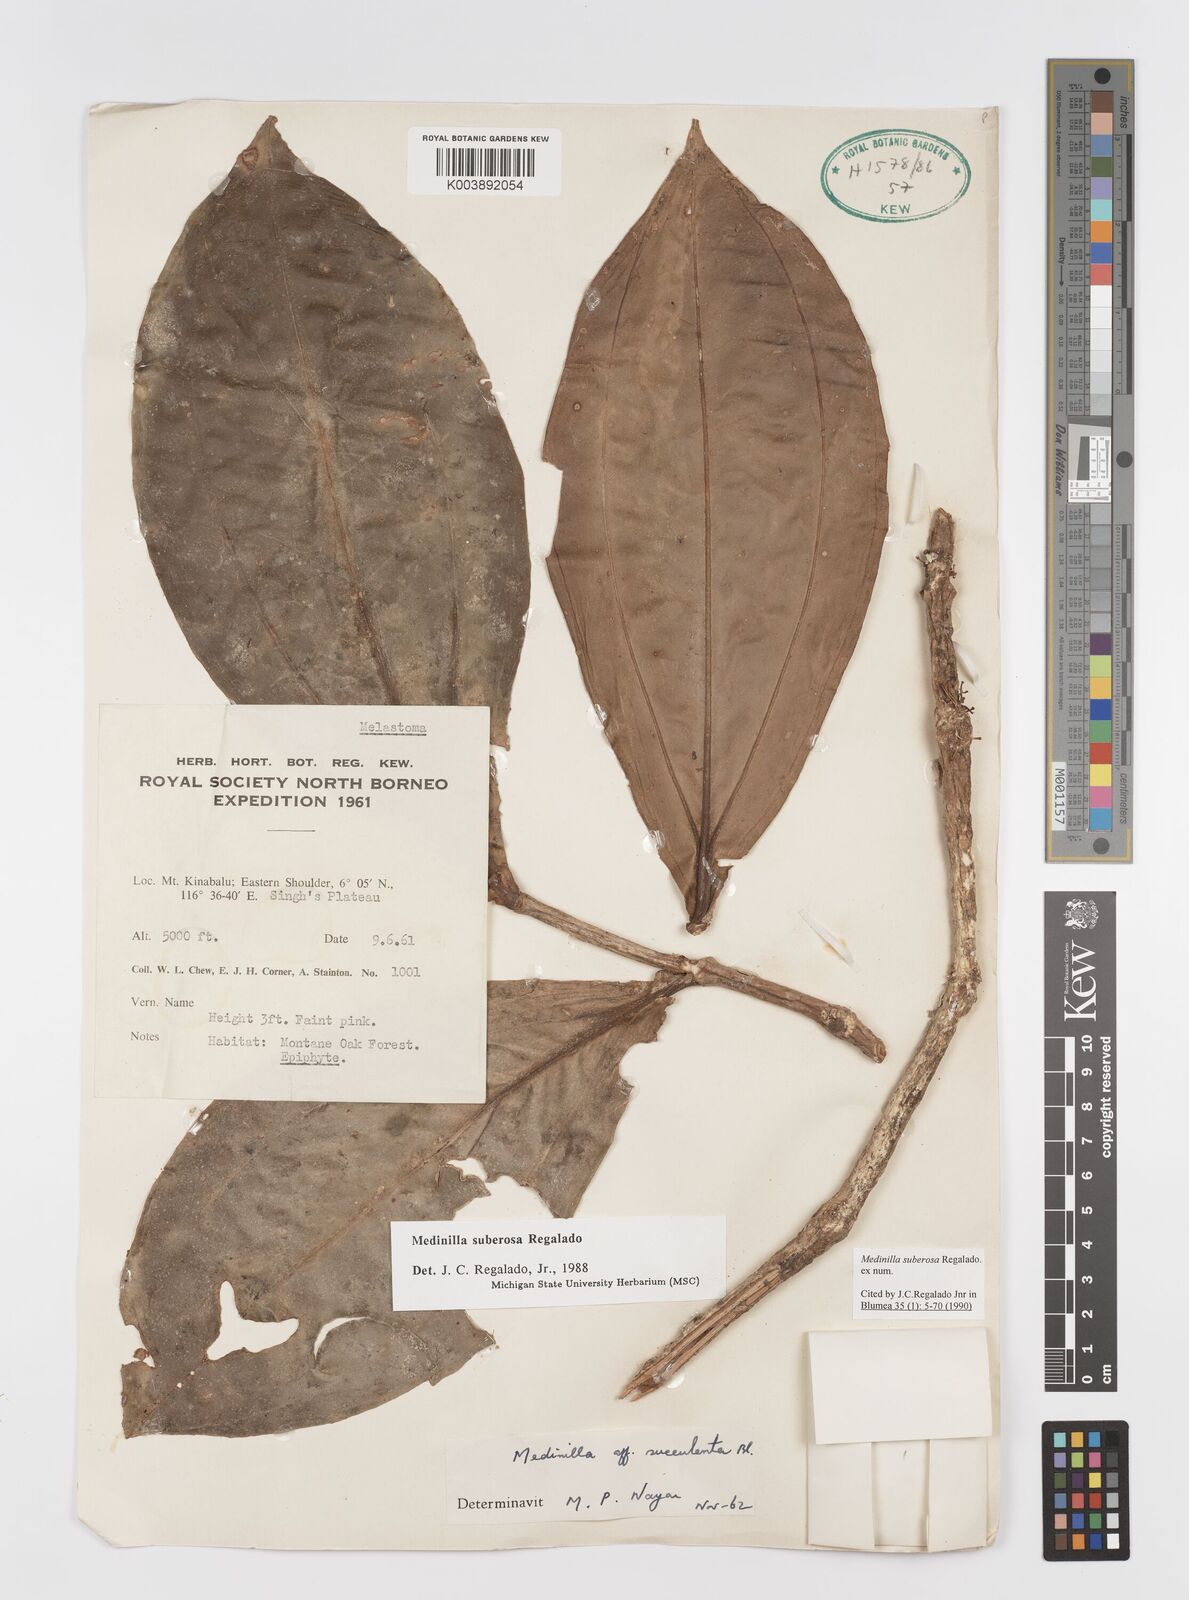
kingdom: Plantae
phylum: Tracheophyta
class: Magnoliopsida
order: Myrtales
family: Melastomataceae
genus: Medinilla
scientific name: Medinilla suberosa
